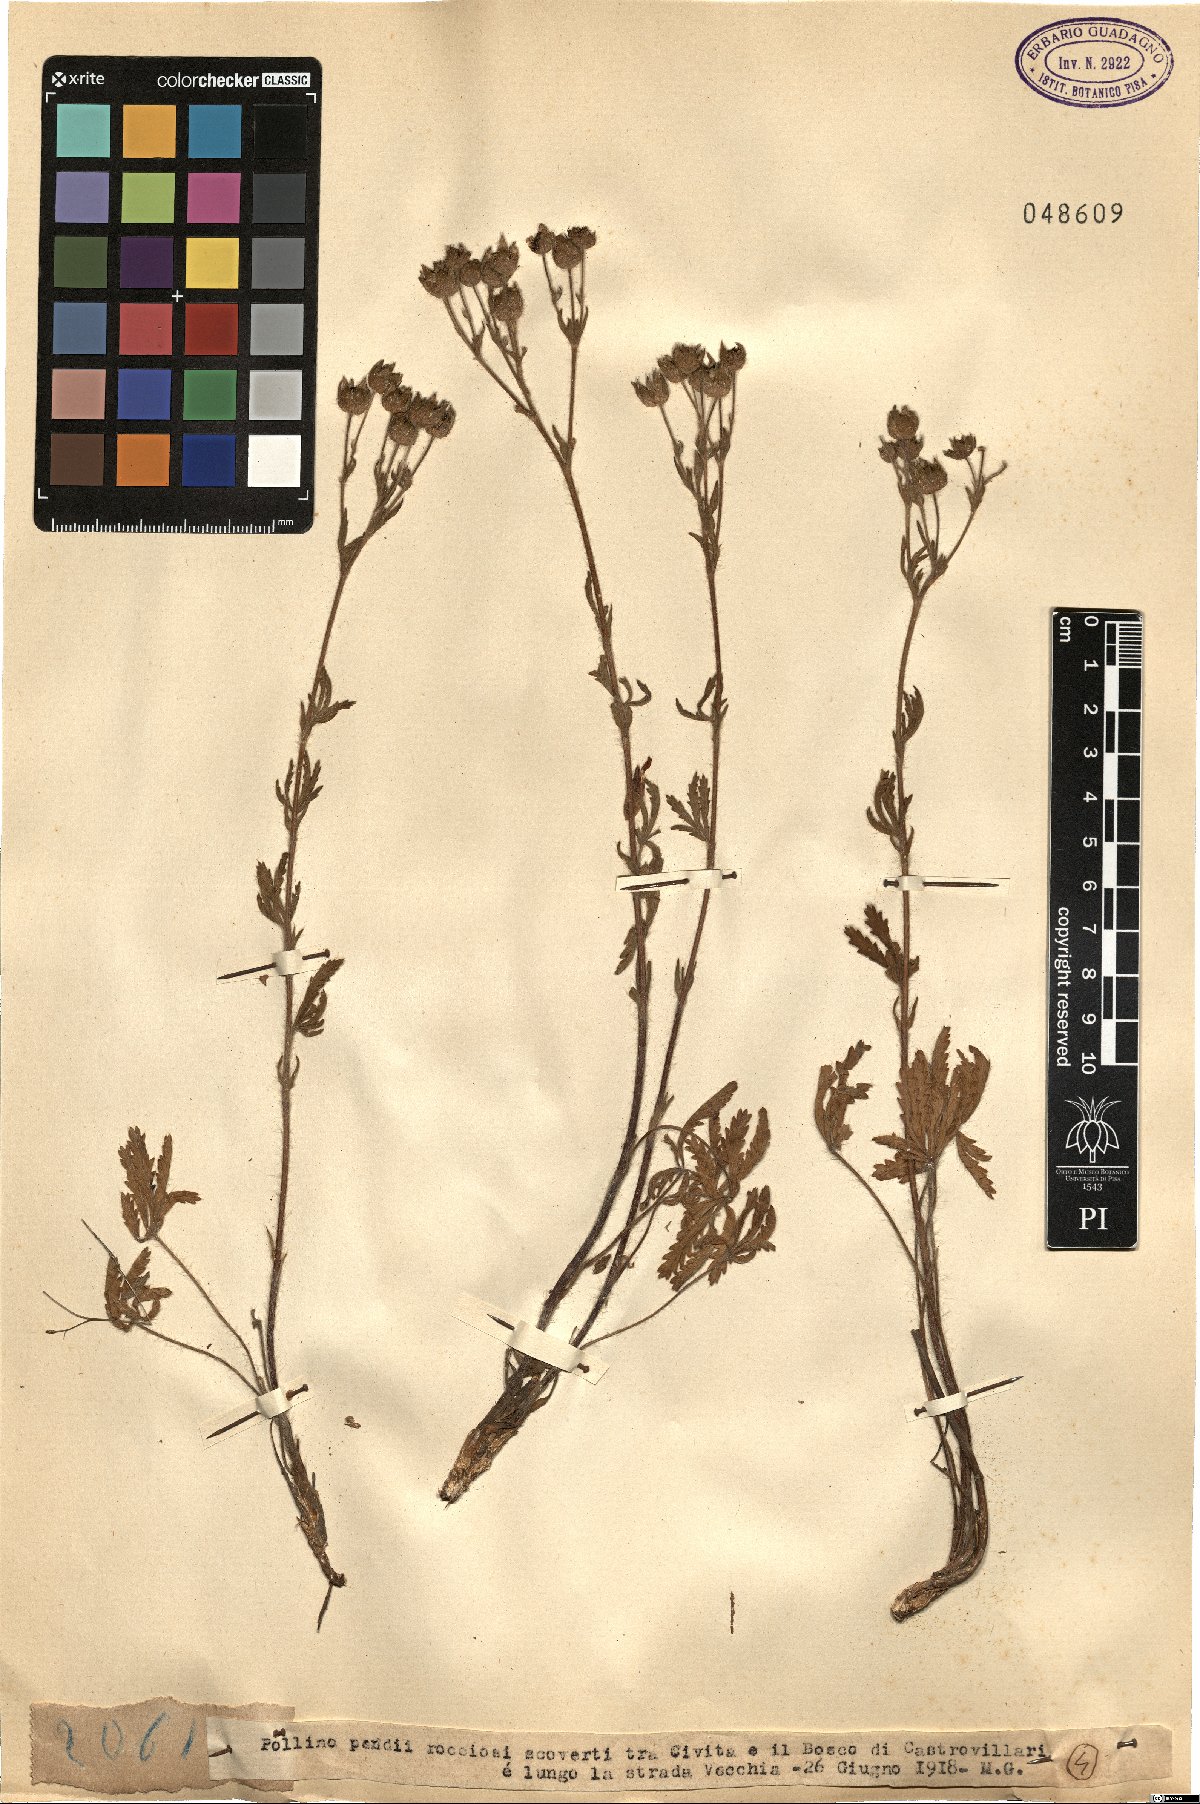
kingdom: Plantae
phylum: Tracheophyta
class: Magnoliopsida
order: Rosales
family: Rosaceae
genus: Potentilla
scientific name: Potentilla
